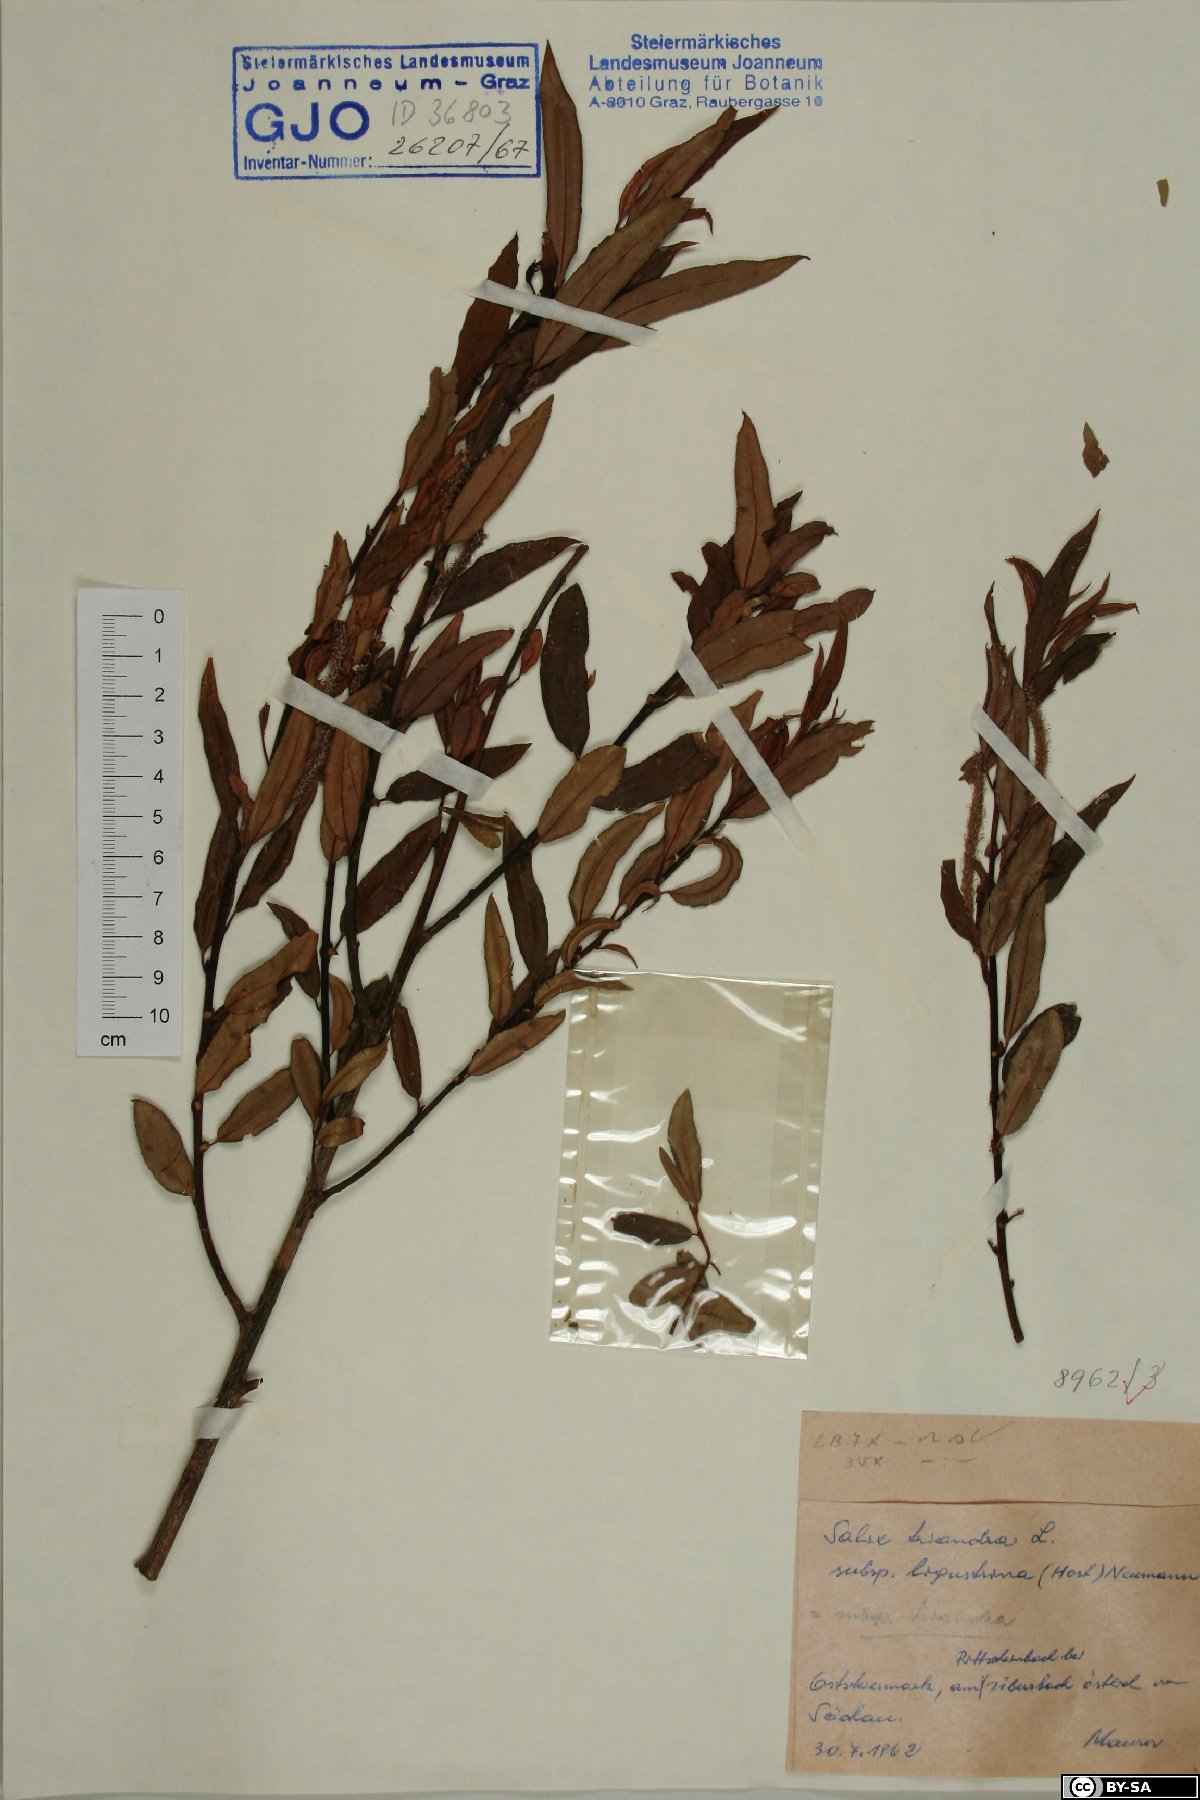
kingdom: Plantae
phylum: Tracheophyta
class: Magnoliopsida
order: Malpighiales
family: Salicaceae
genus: Salix
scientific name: Salix triandra
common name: Almond willow
